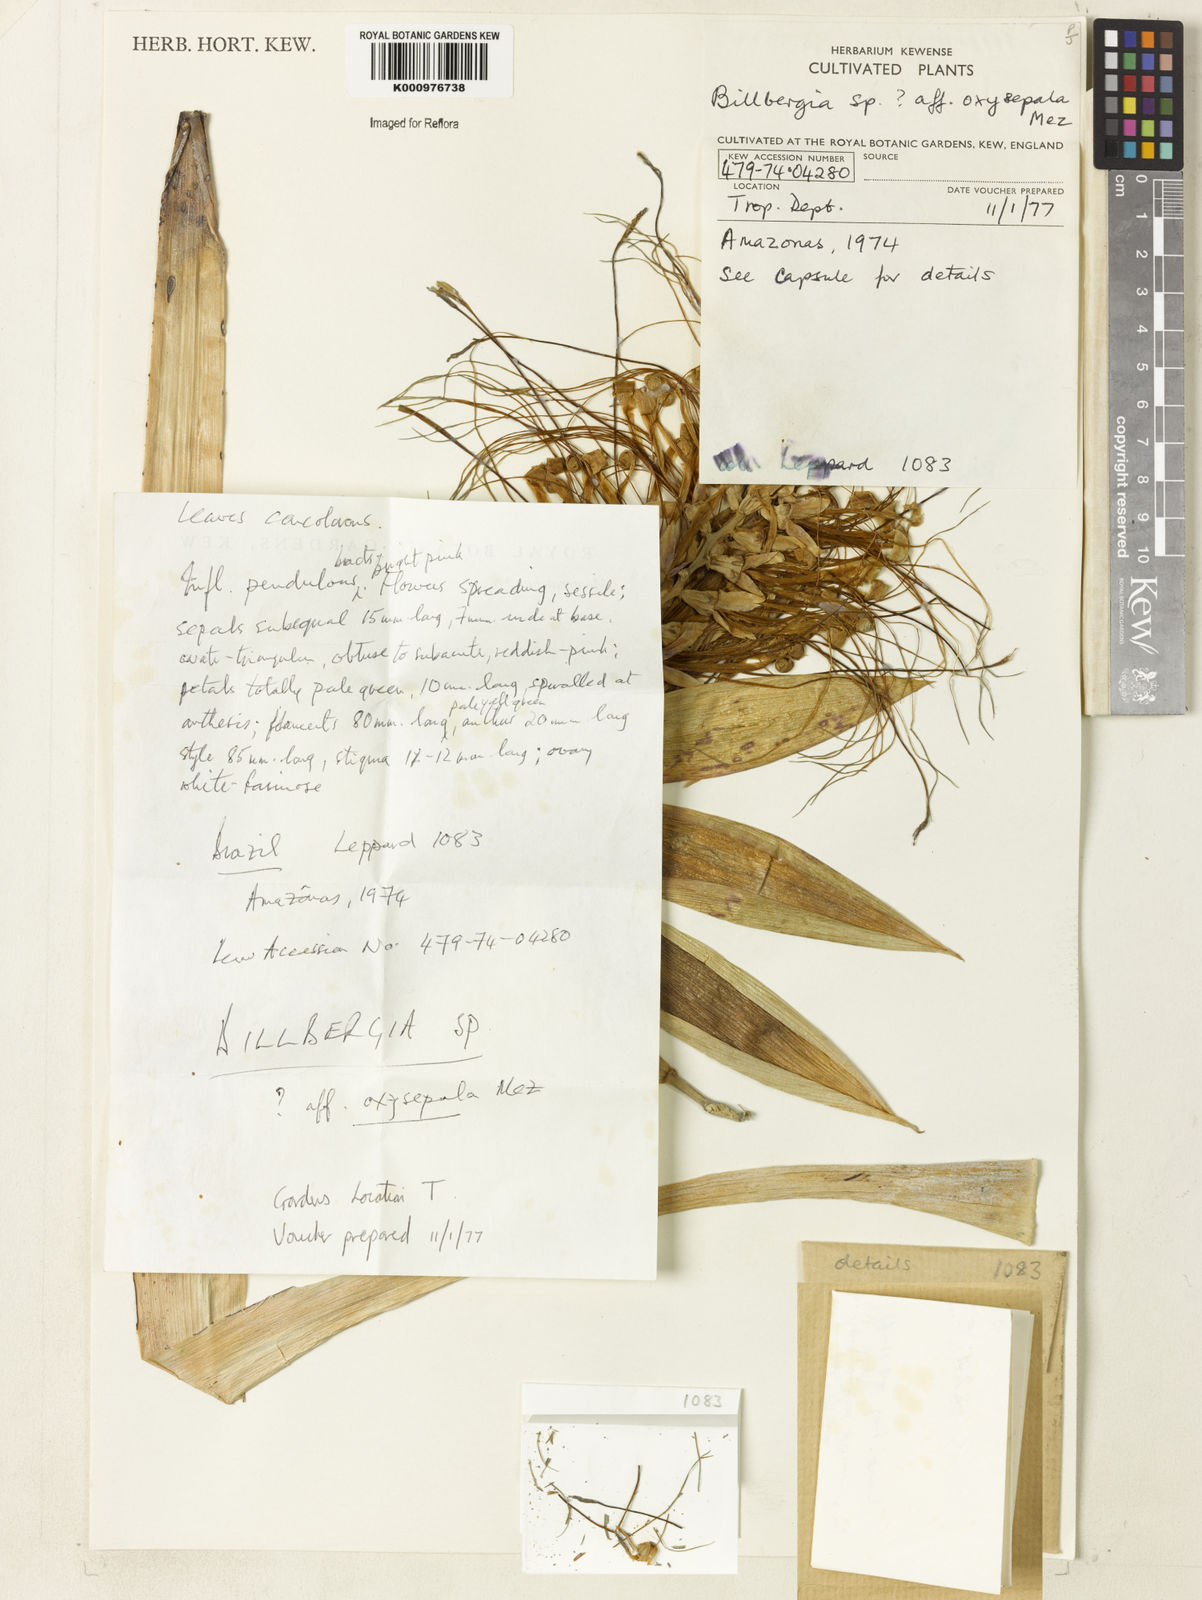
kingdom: Plantae
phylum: Tracheophyta
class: Liliopsida
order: Poales
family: Bromeliaceae
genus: Billbergia
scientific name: Billbergia oxysepala
